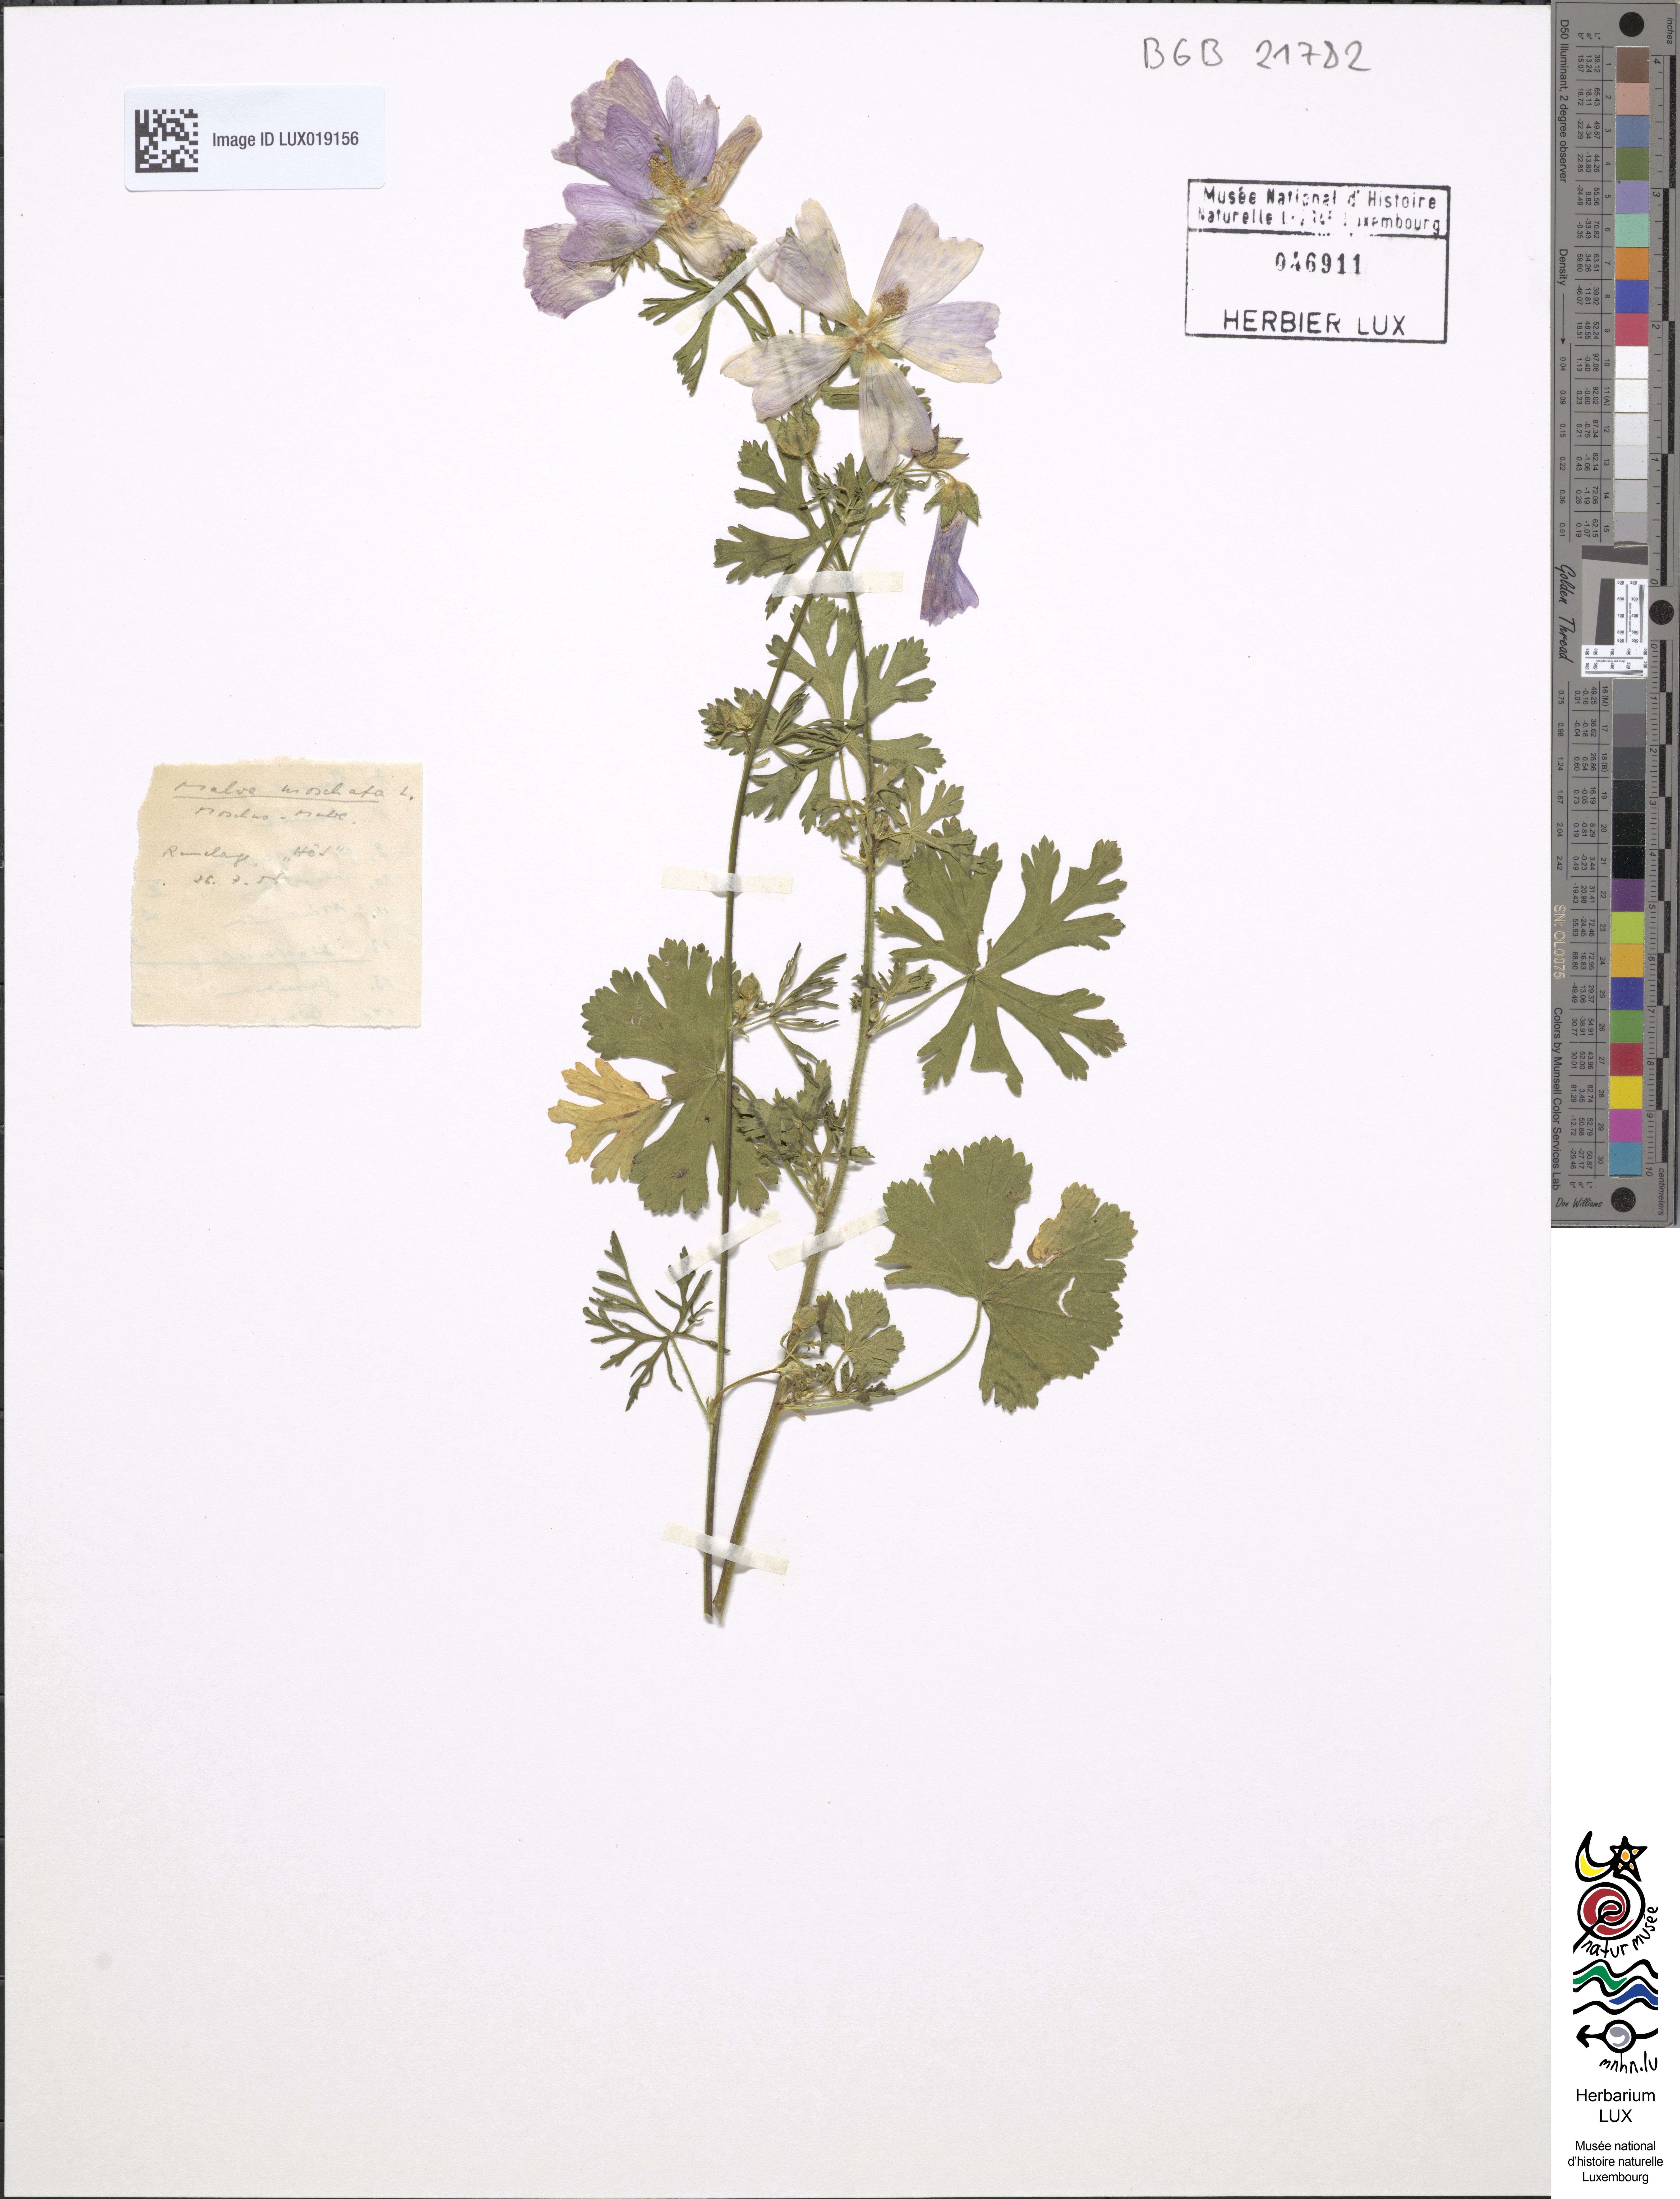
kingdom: Plantae
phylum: Tracheophyta
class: Magnoliopsida
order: Malvales
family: Malvaceae
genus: Malva
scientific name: Malva moschata
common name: Musk mallow
